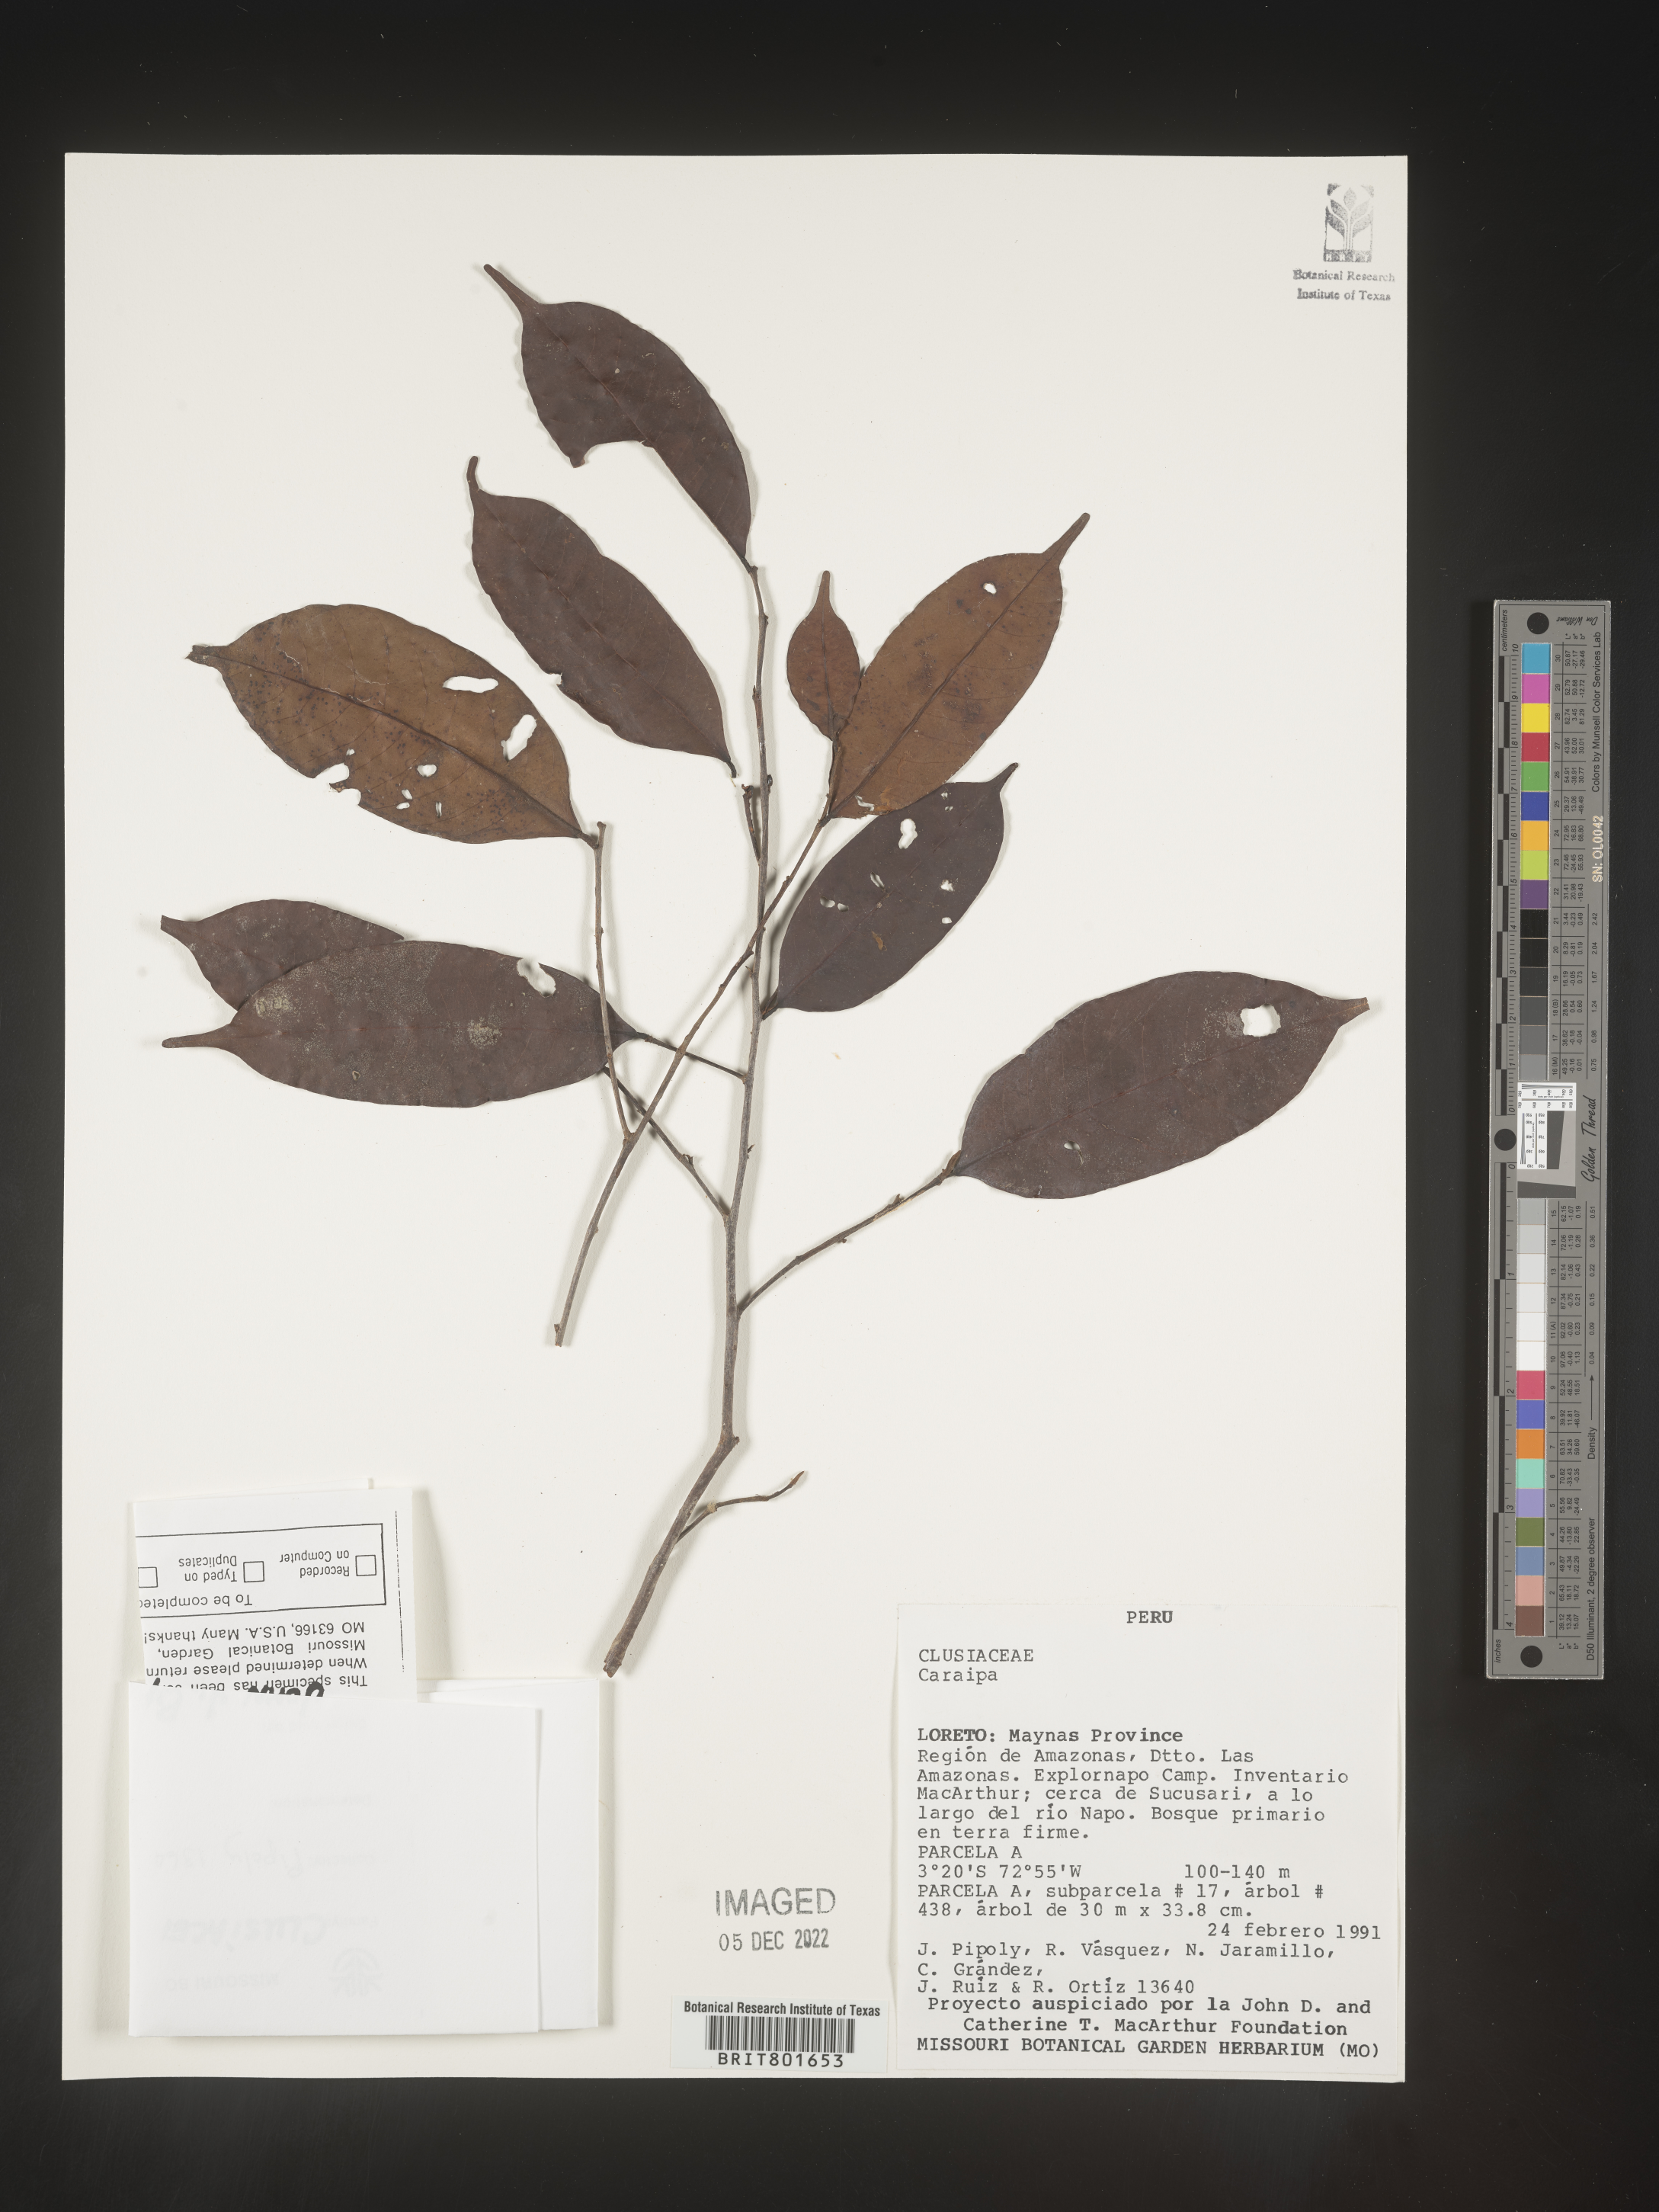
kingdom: Plantae
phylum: Tracheophyta
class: Magnoliopsida
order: Malpighiales
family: Calophyllaceae
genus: Caraipa
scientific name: Caraipa
